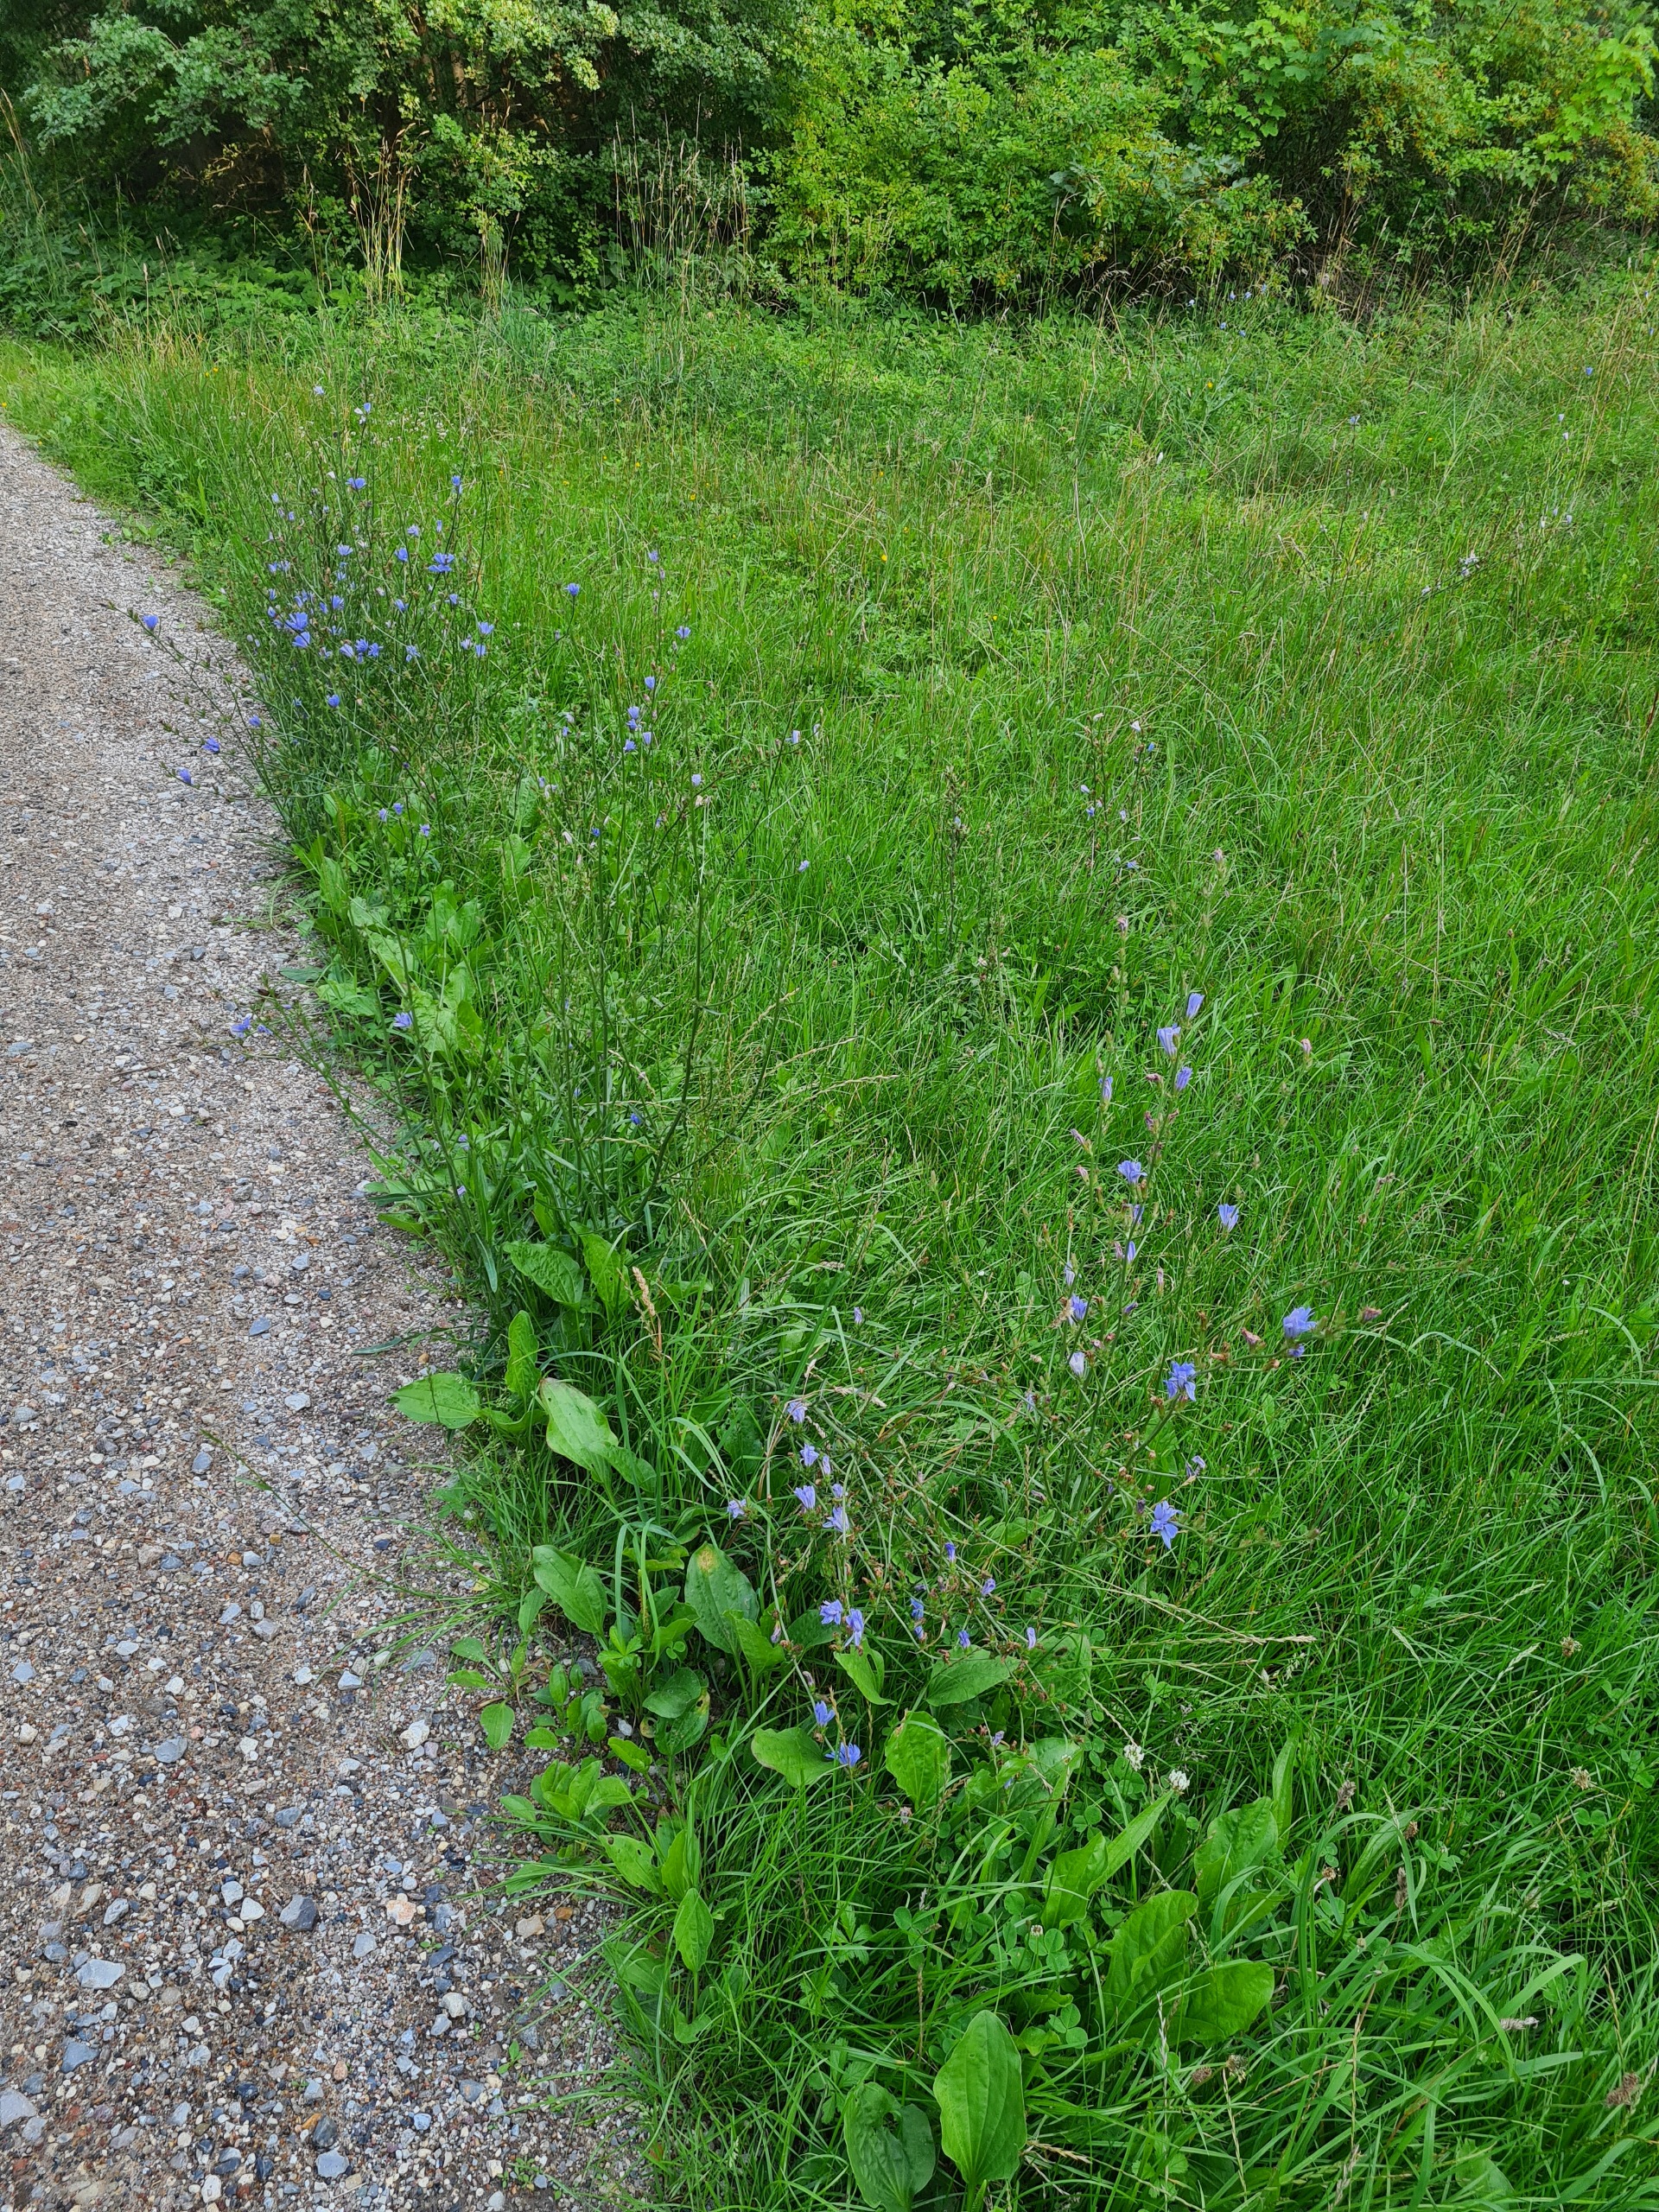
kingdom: Plantae
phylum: Tracheophyta
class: Magnoliopsida
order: Asterales
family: Asteraceae
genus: Cichorium
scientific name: Cichorium intybus
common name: Cikorie
